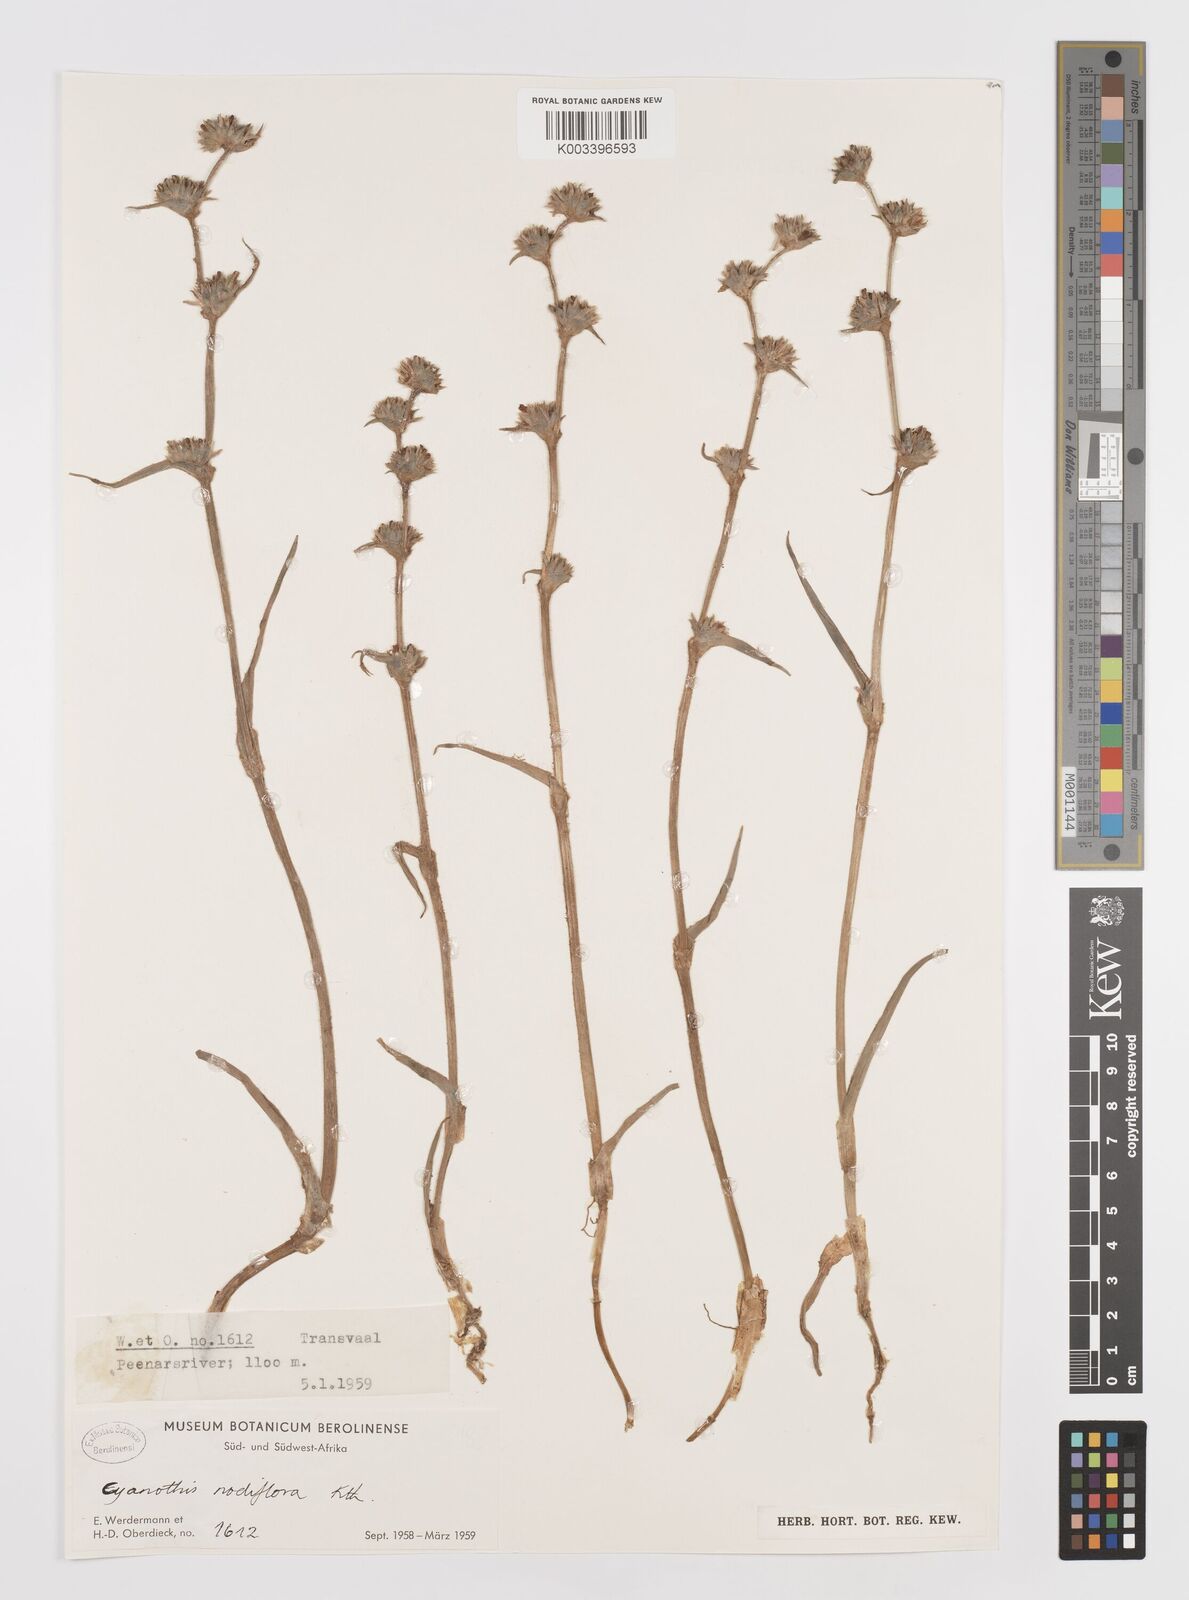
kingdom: Plantae
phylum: Tracheophyta
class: Liliopsida
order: Commelinales
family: Commelinaceae
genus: Cyanotis
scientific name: Cyanotis speciosa
